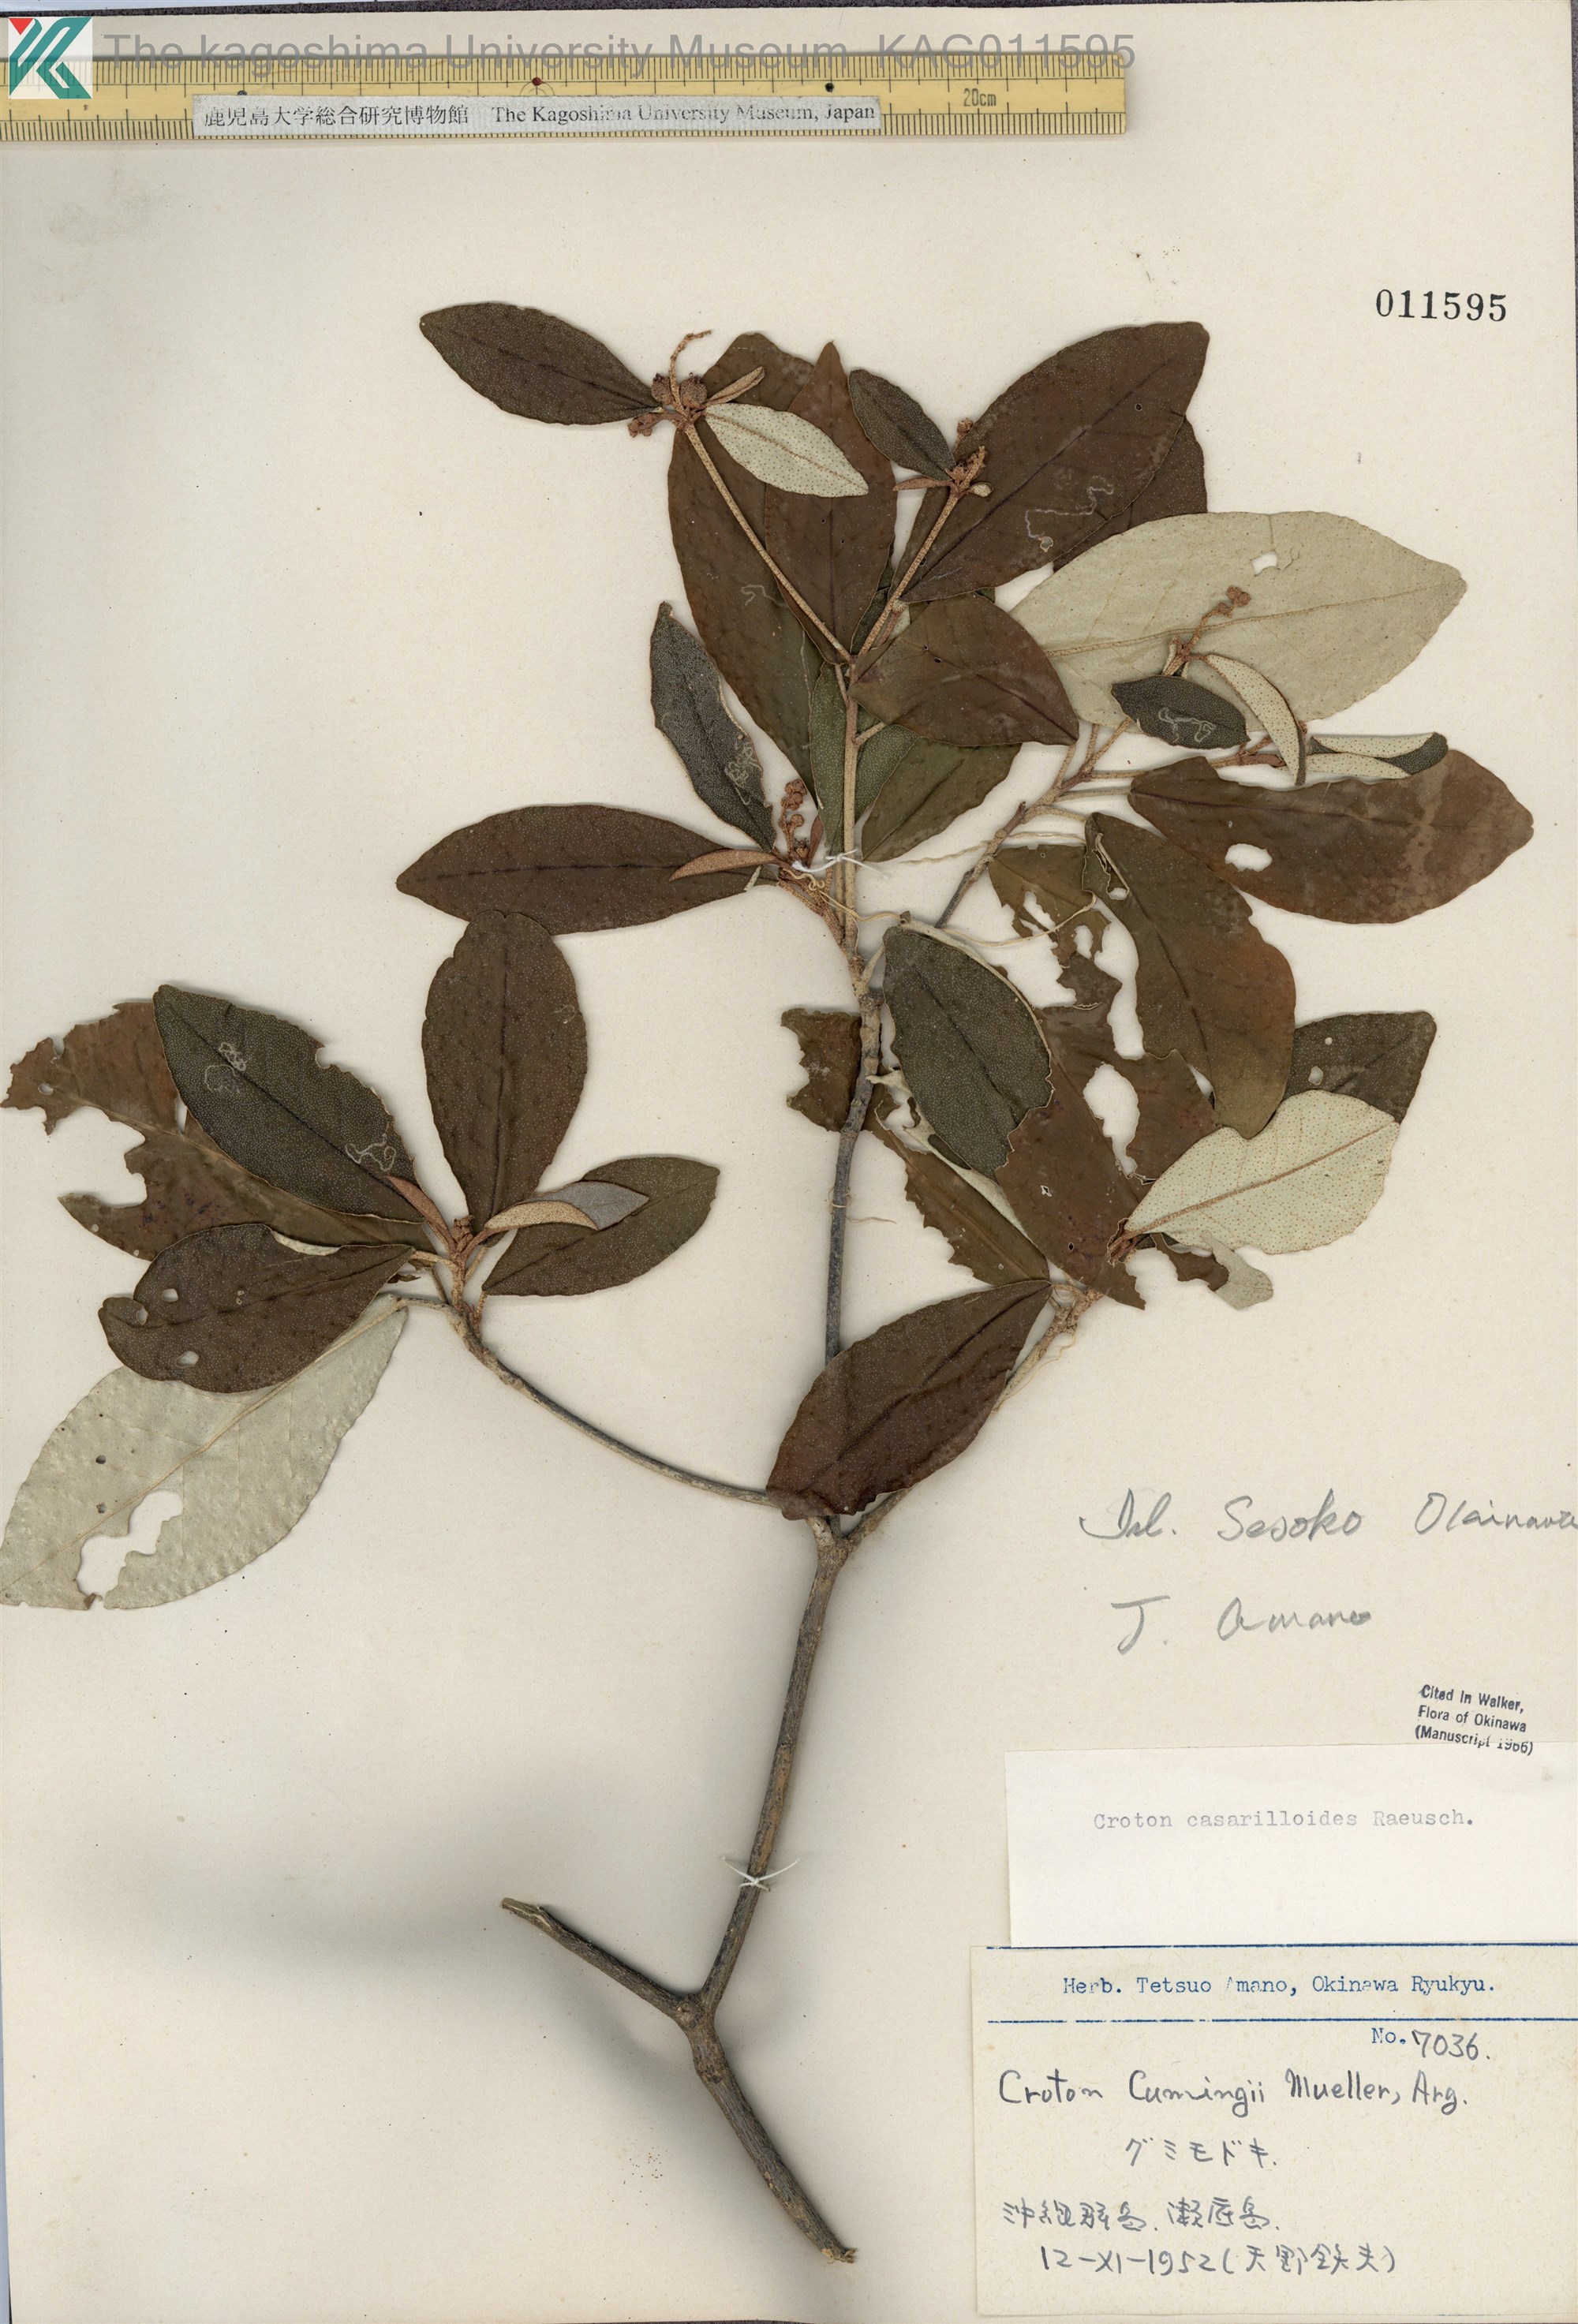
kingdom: Plantae
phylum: Tracheophyta
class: Magnoliopsida
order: Malpighiales
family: Euphorbiaceae
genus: Croton
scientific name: Croton cascarilloides
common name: グミモドキ
